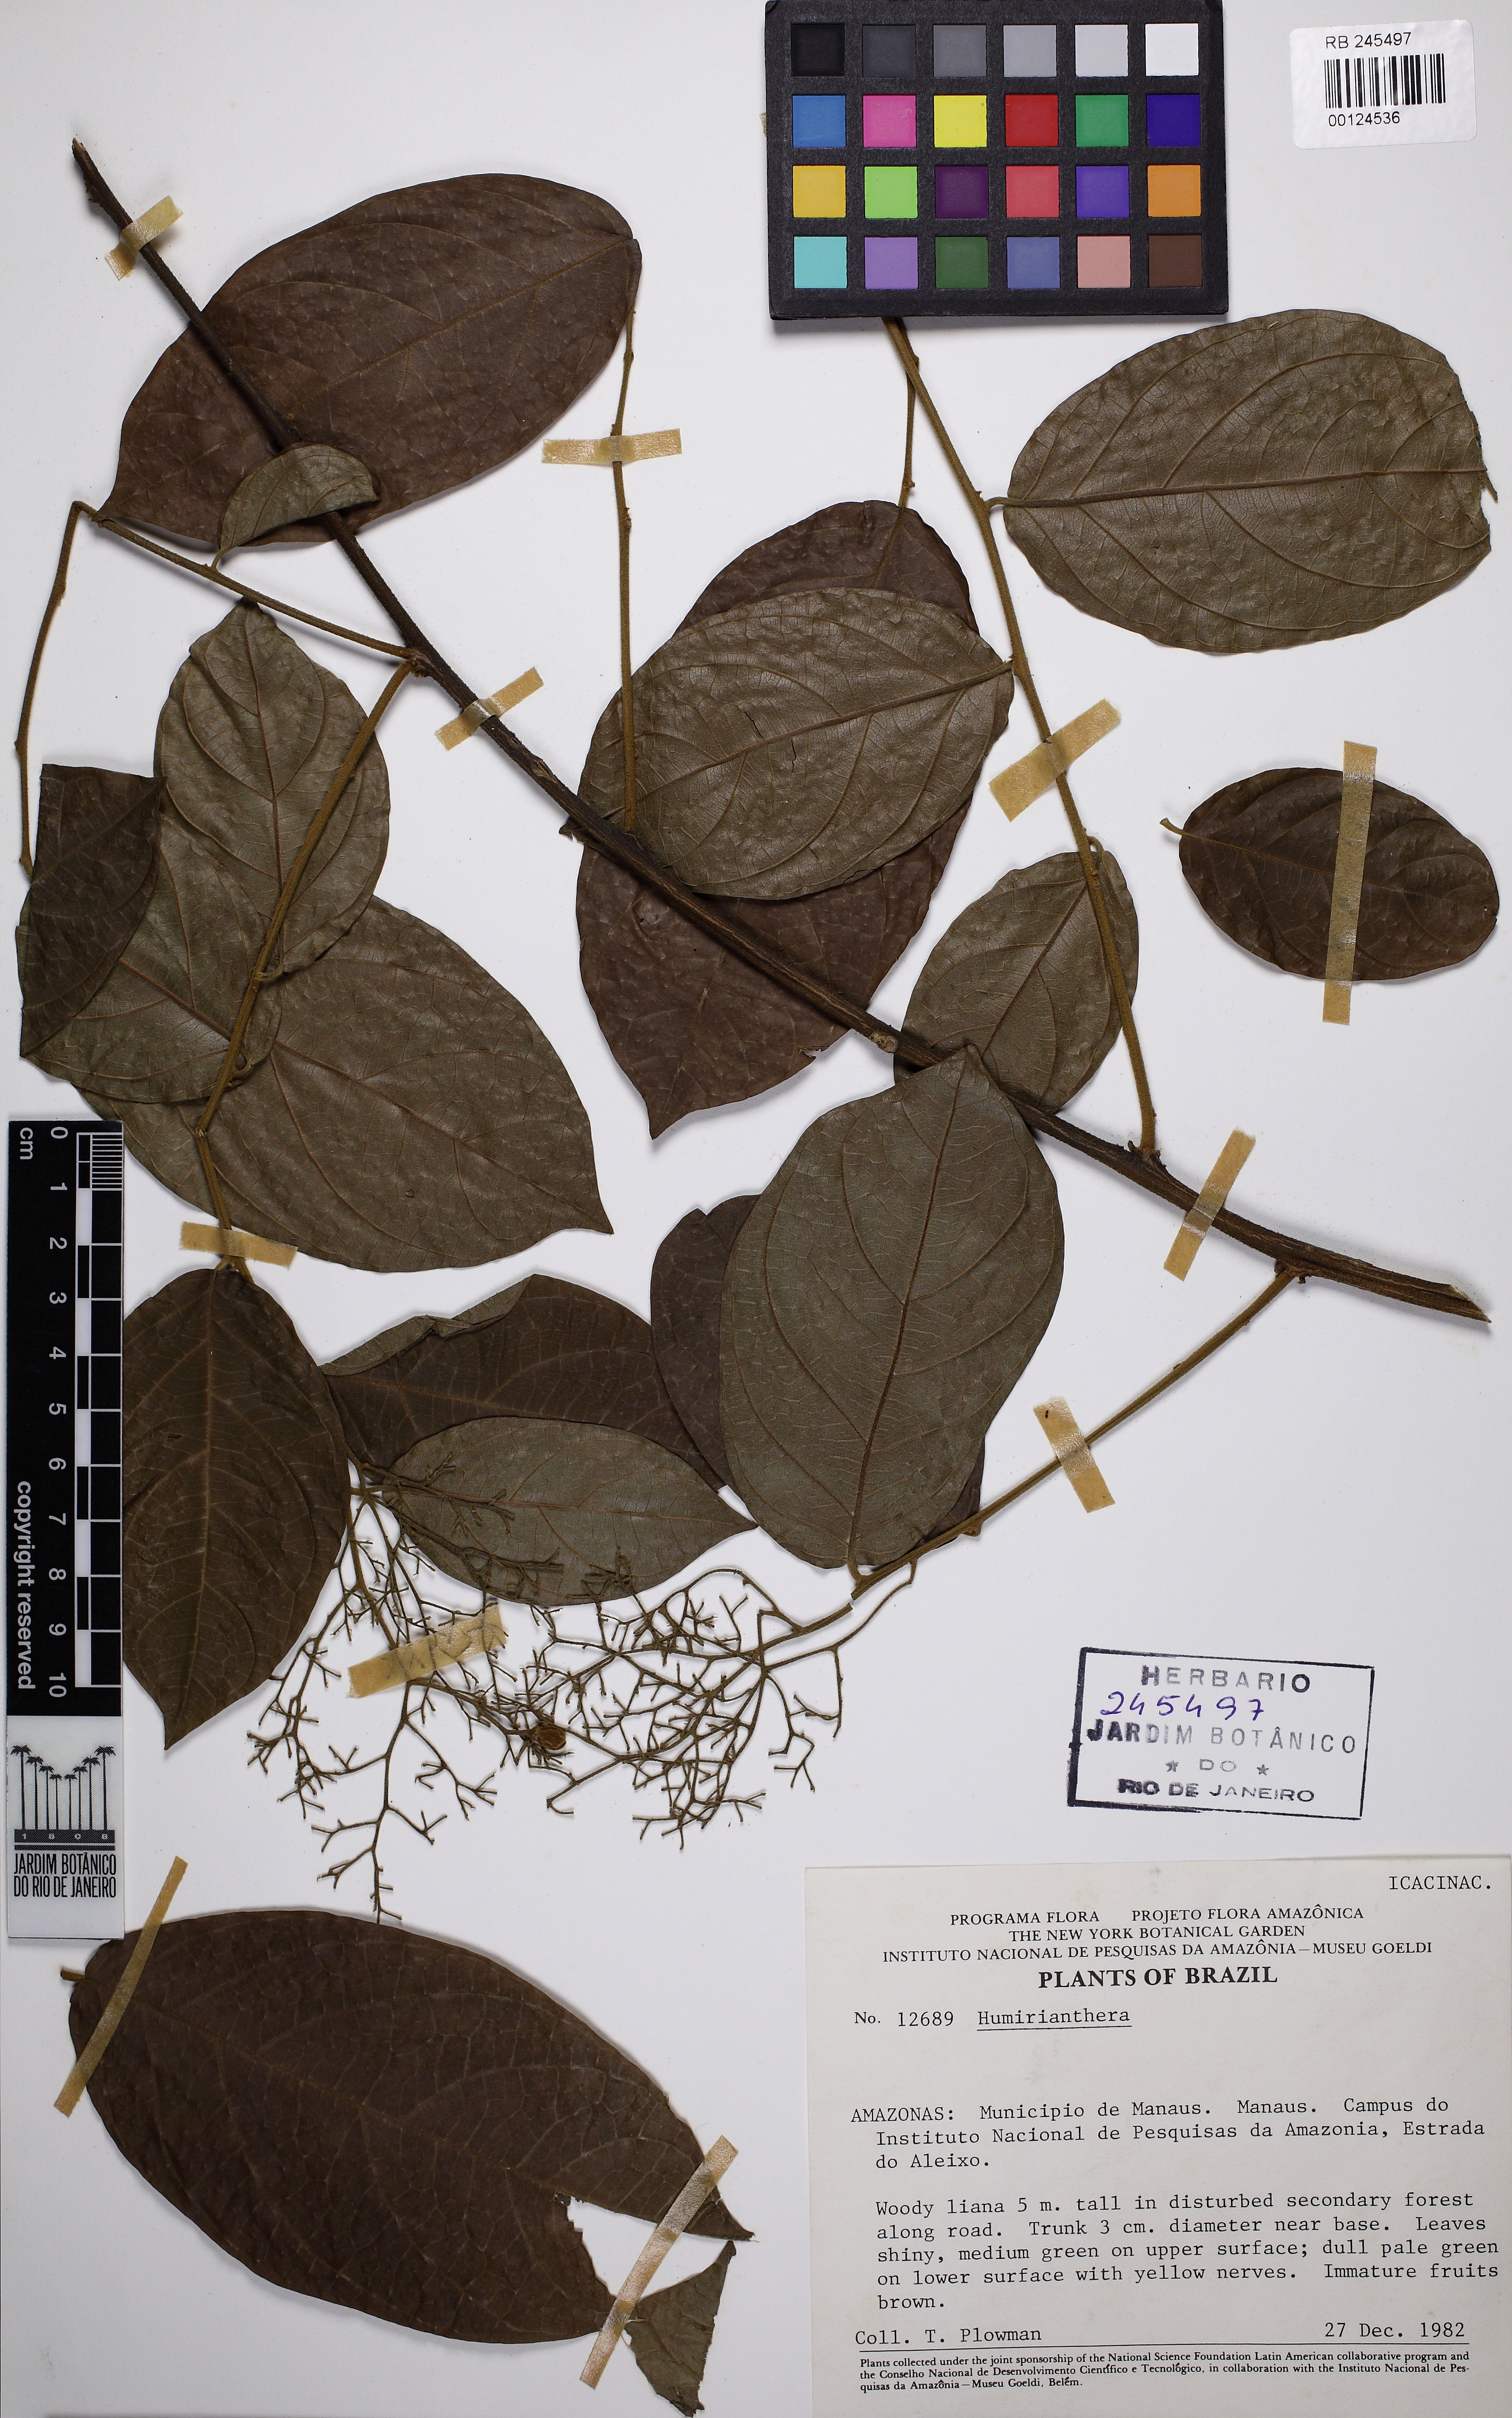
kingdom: Plantae
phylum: Tracheophyta
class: Magnoliopsida
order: Icacinales
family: Icacinaceae
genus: Casimirella
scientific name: Casimirella
